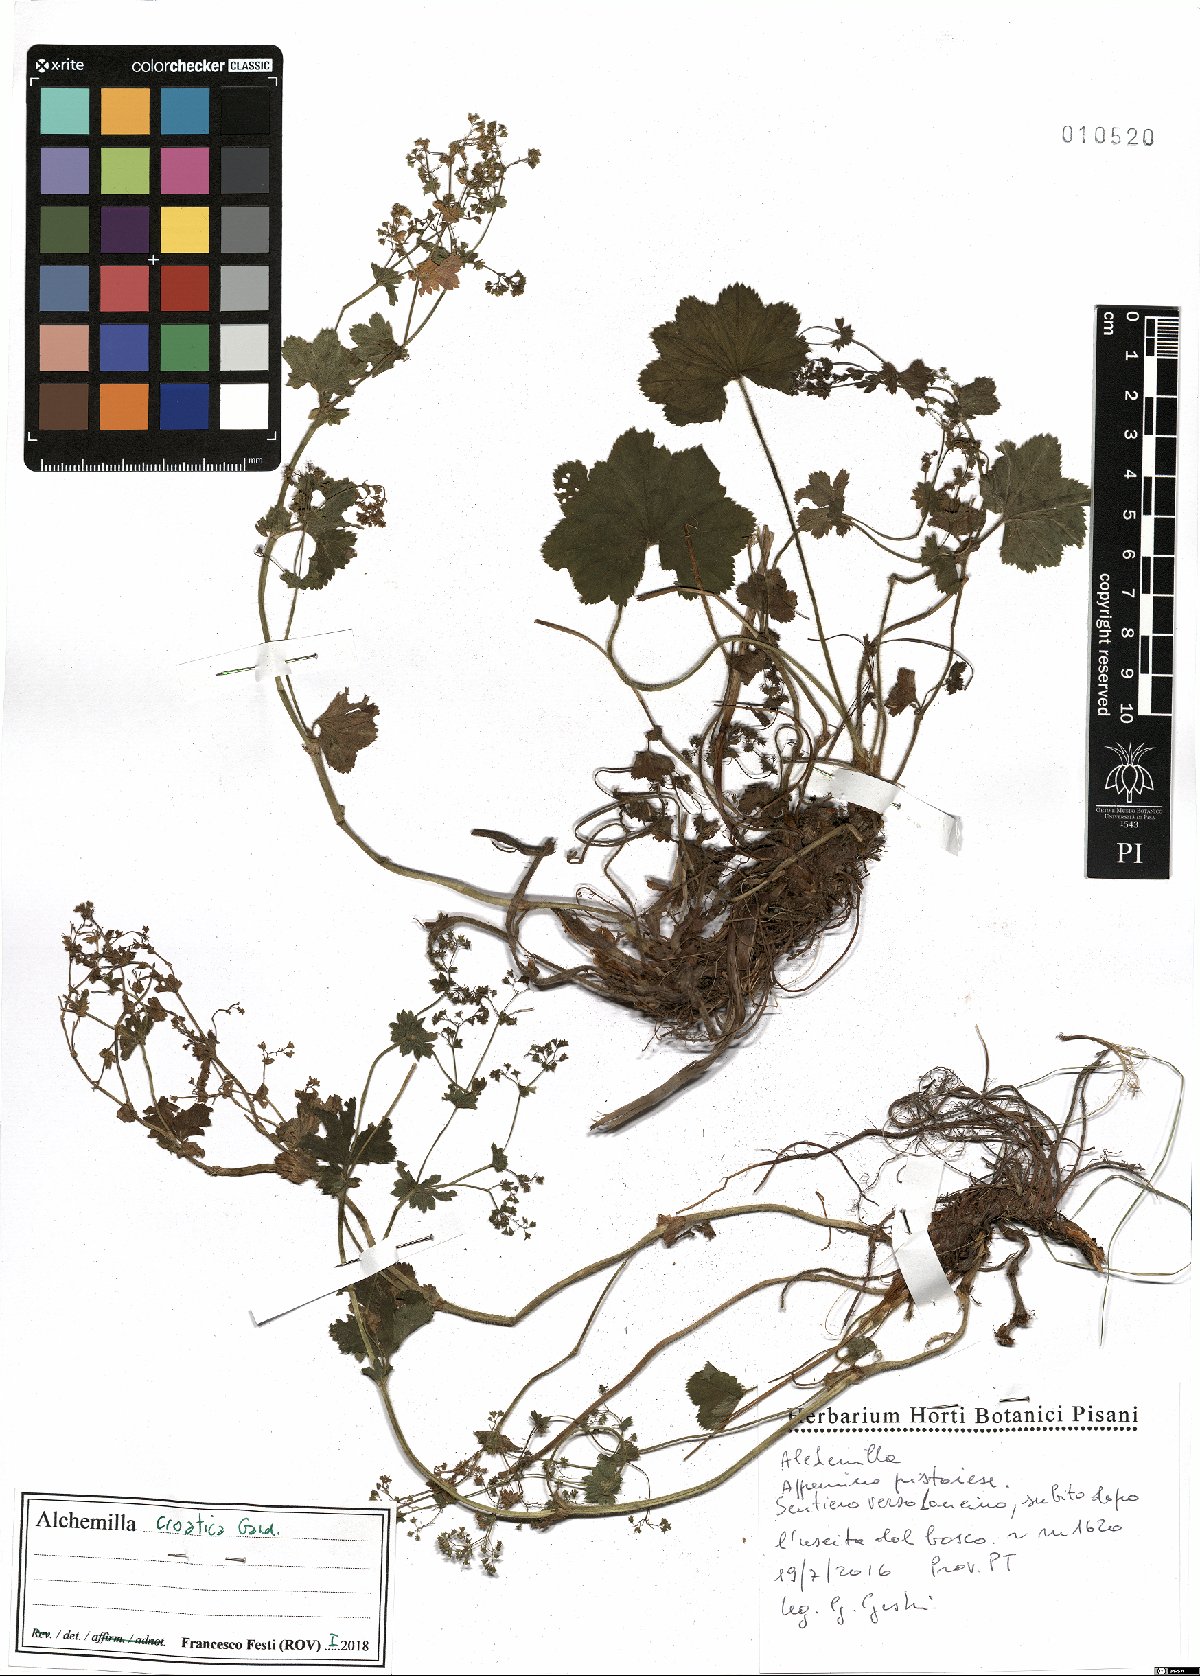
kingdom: Plantae
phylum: Tracheophyta
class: Magnoliopsida
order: Rosales
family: Rosaceae
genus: Alchemilla
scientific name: Alchemilla croatica
